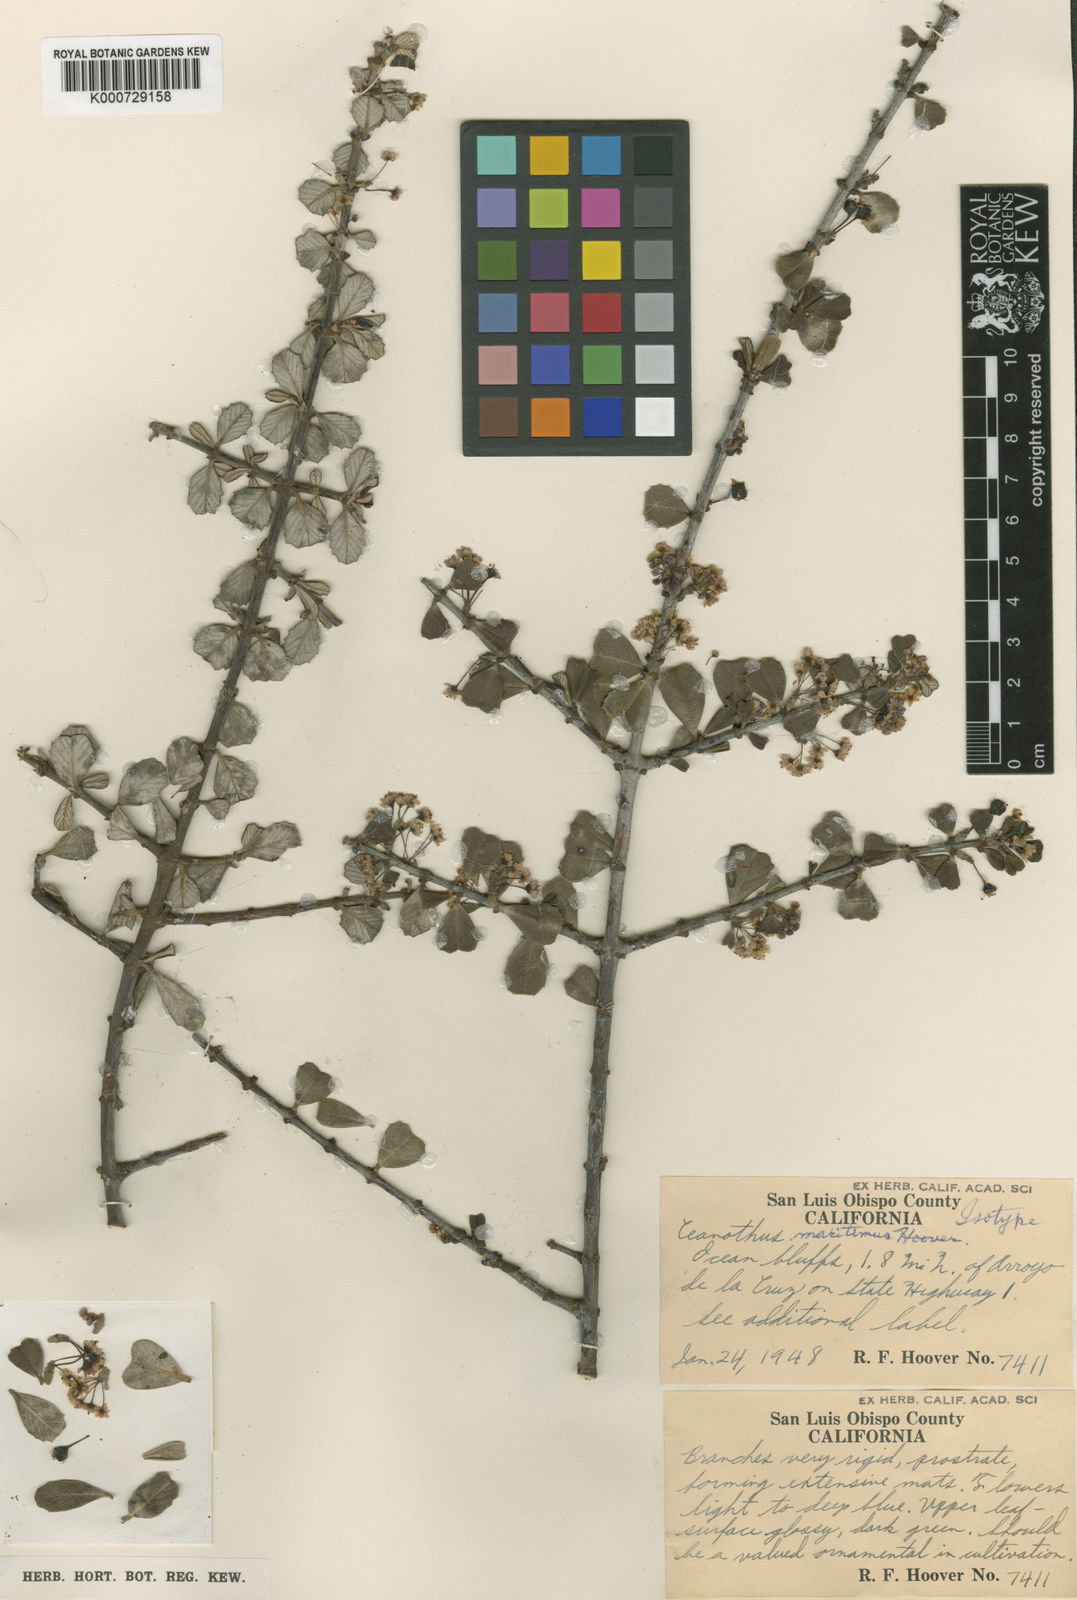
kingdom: Plantae
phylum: Tracheophyta
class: Magnoliopsida
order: Rosales
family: Rhamnaceae
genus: Ceanothus
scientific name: Ceanothus maritimus
